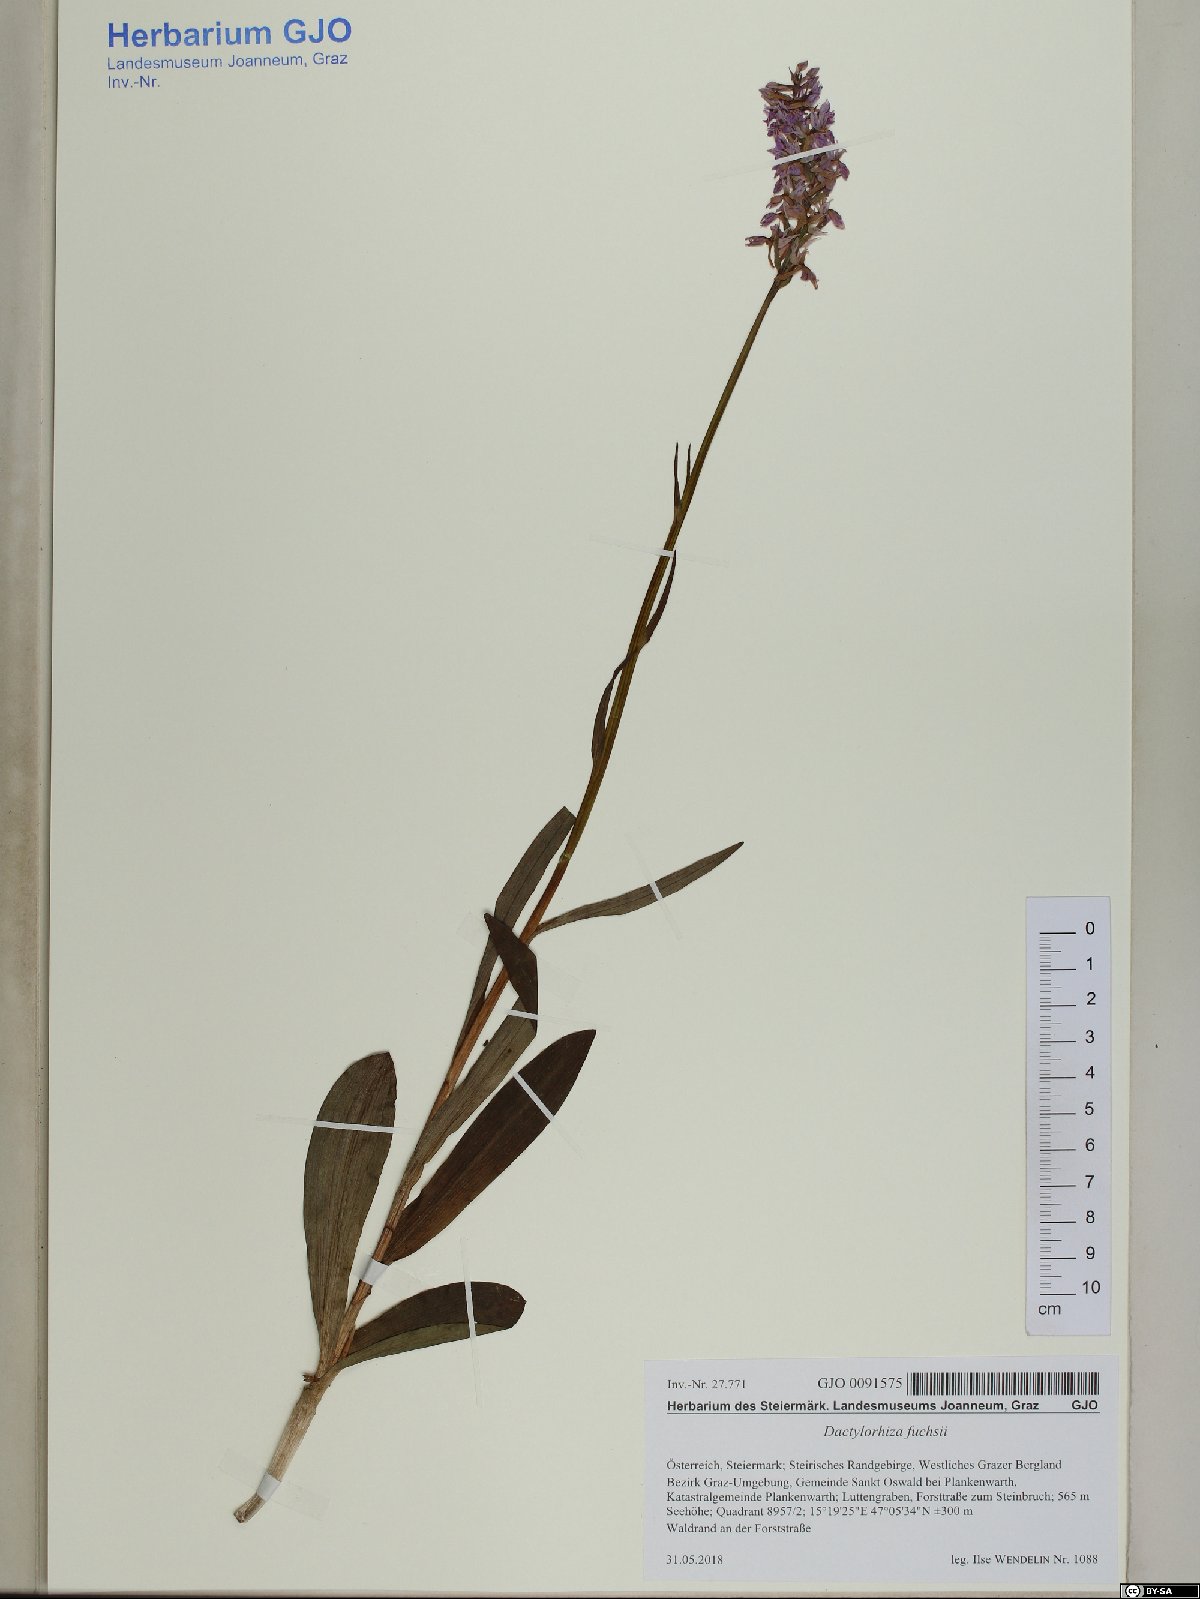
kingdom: Plantae
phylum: Tracheophyta
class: Liliopsida
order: Asparagales
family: Orchidaceae
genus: Dactylorhiza
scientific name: Dactylorhiza maculata
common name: Heath spotted-orchid
